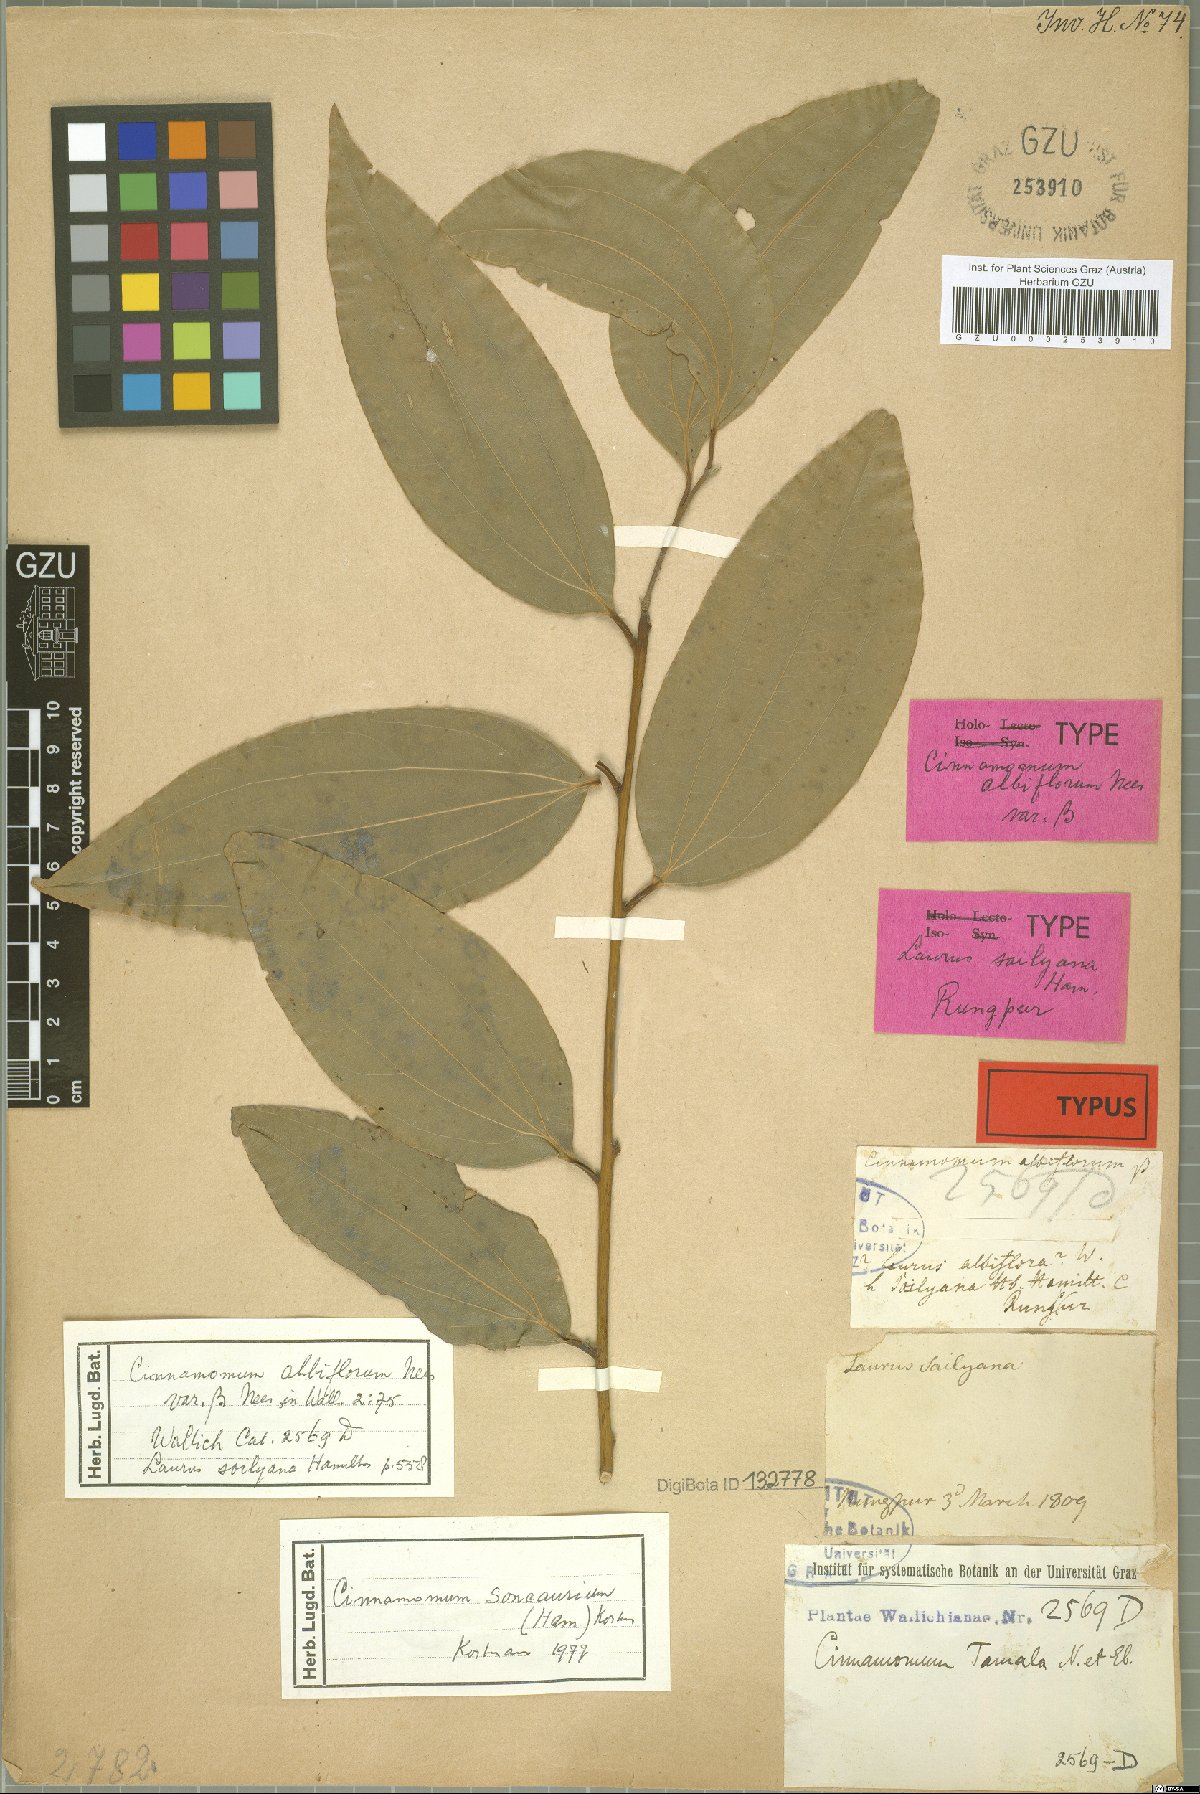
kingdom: Plantae
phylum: Tracheophyta
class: Magnoliopsida
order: Laurales
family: Lauraceae
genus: Cinnamomum
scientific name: Cinnamomum tamala
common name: Indian bay leaves
